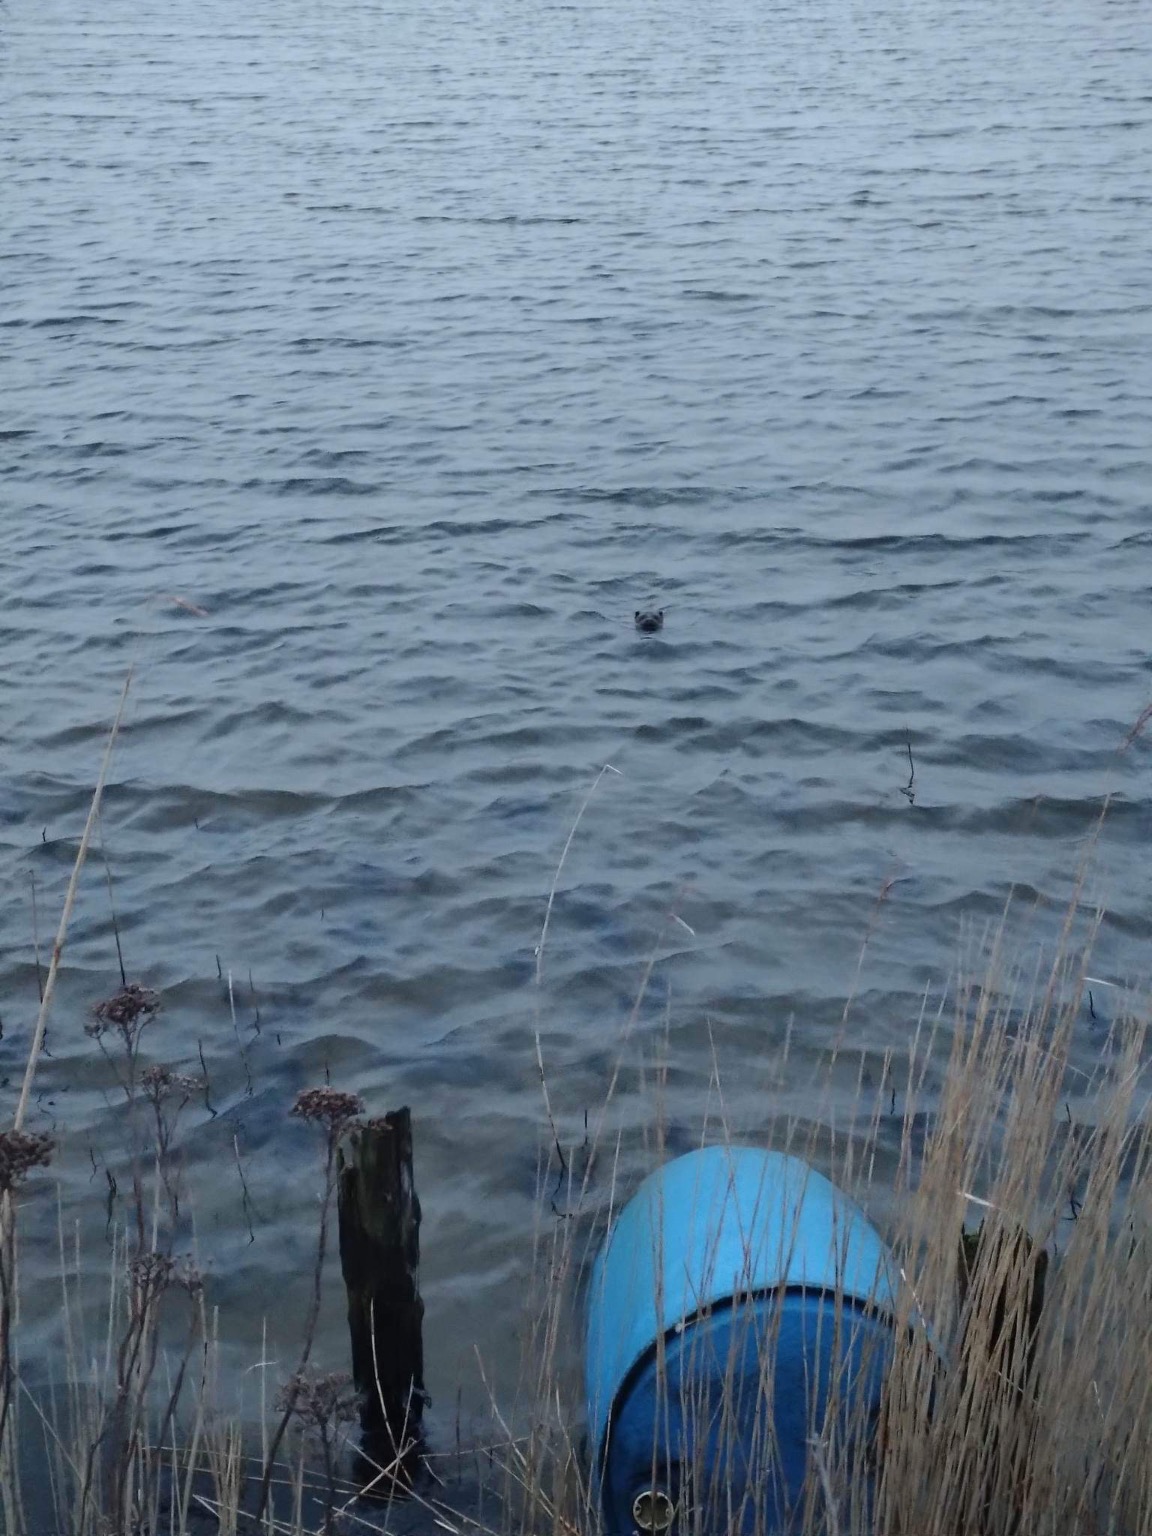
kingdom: Animalia
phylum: Chordata
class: Mammalia
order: Carnivora
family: Mustelidae
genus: Lutra
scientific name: Lutra lutra
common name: Odder
